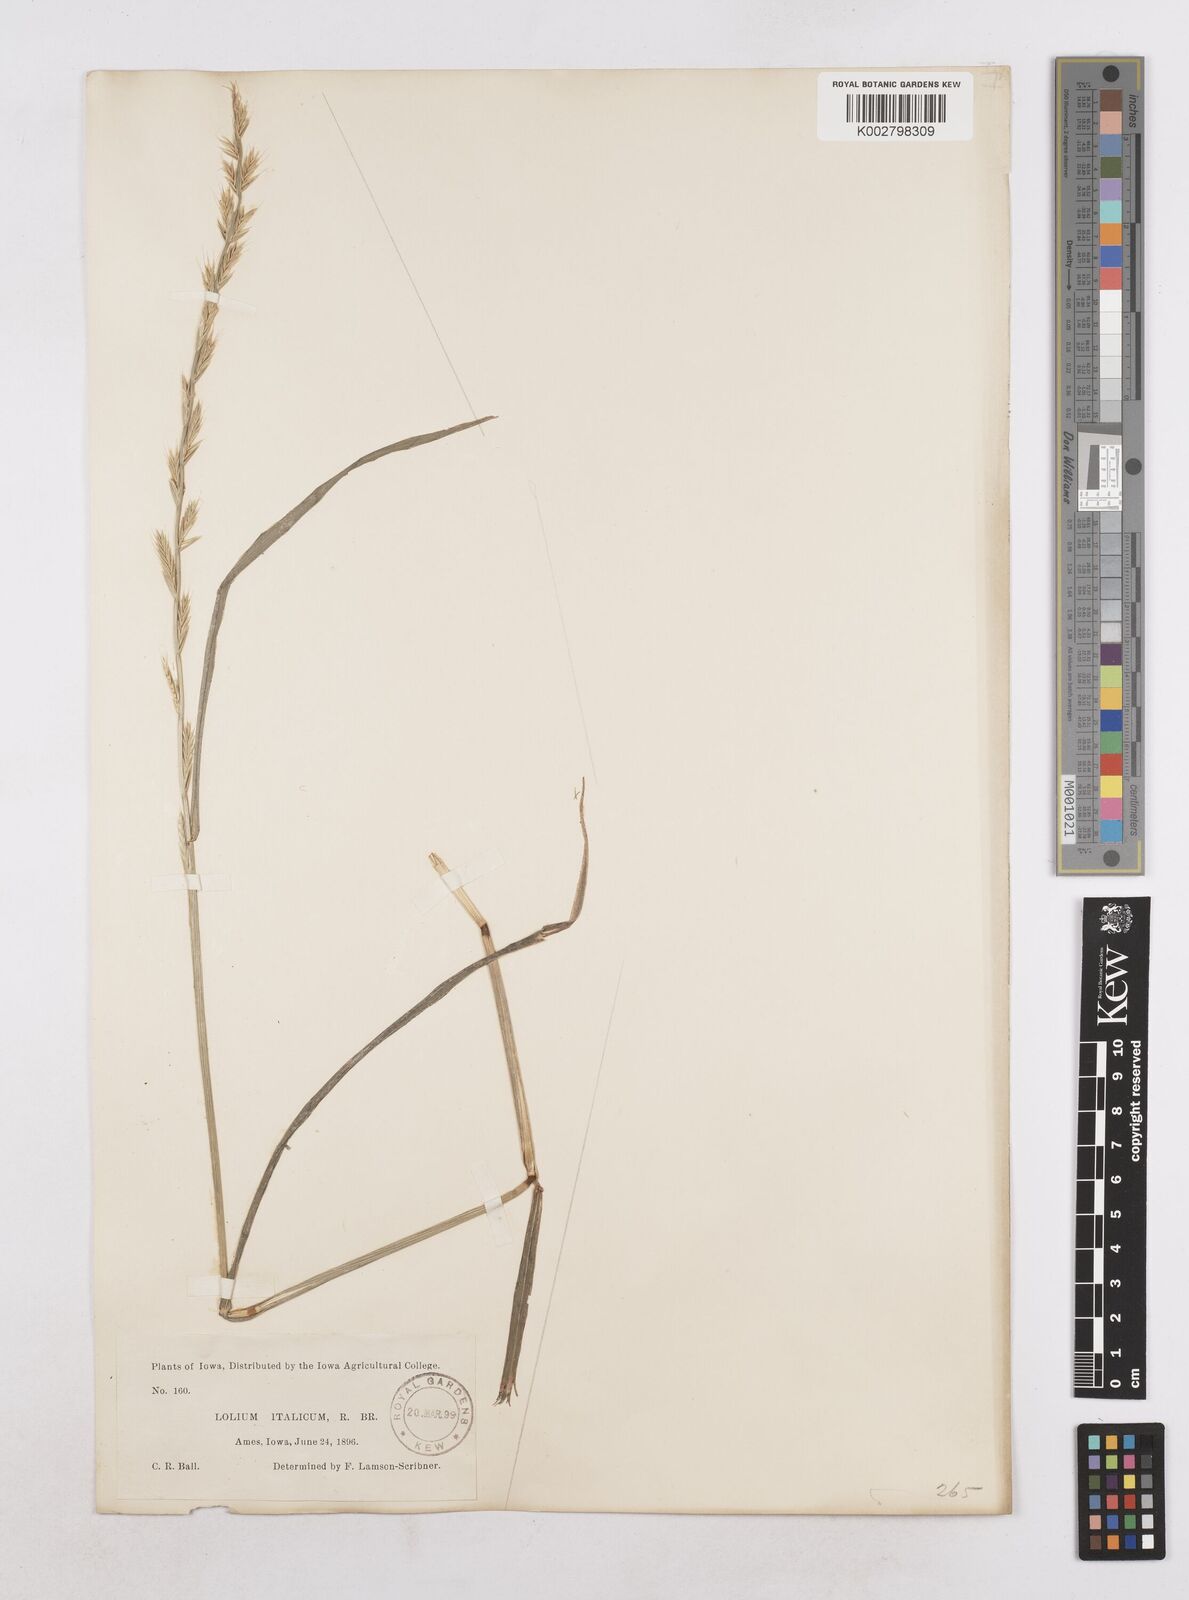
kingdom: Plantae
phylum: Tracheophyta
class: Liliopsida
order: Poales
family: Poaceae
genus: Lolium
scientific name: Lolium perenne
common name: Perennial ryegrass
